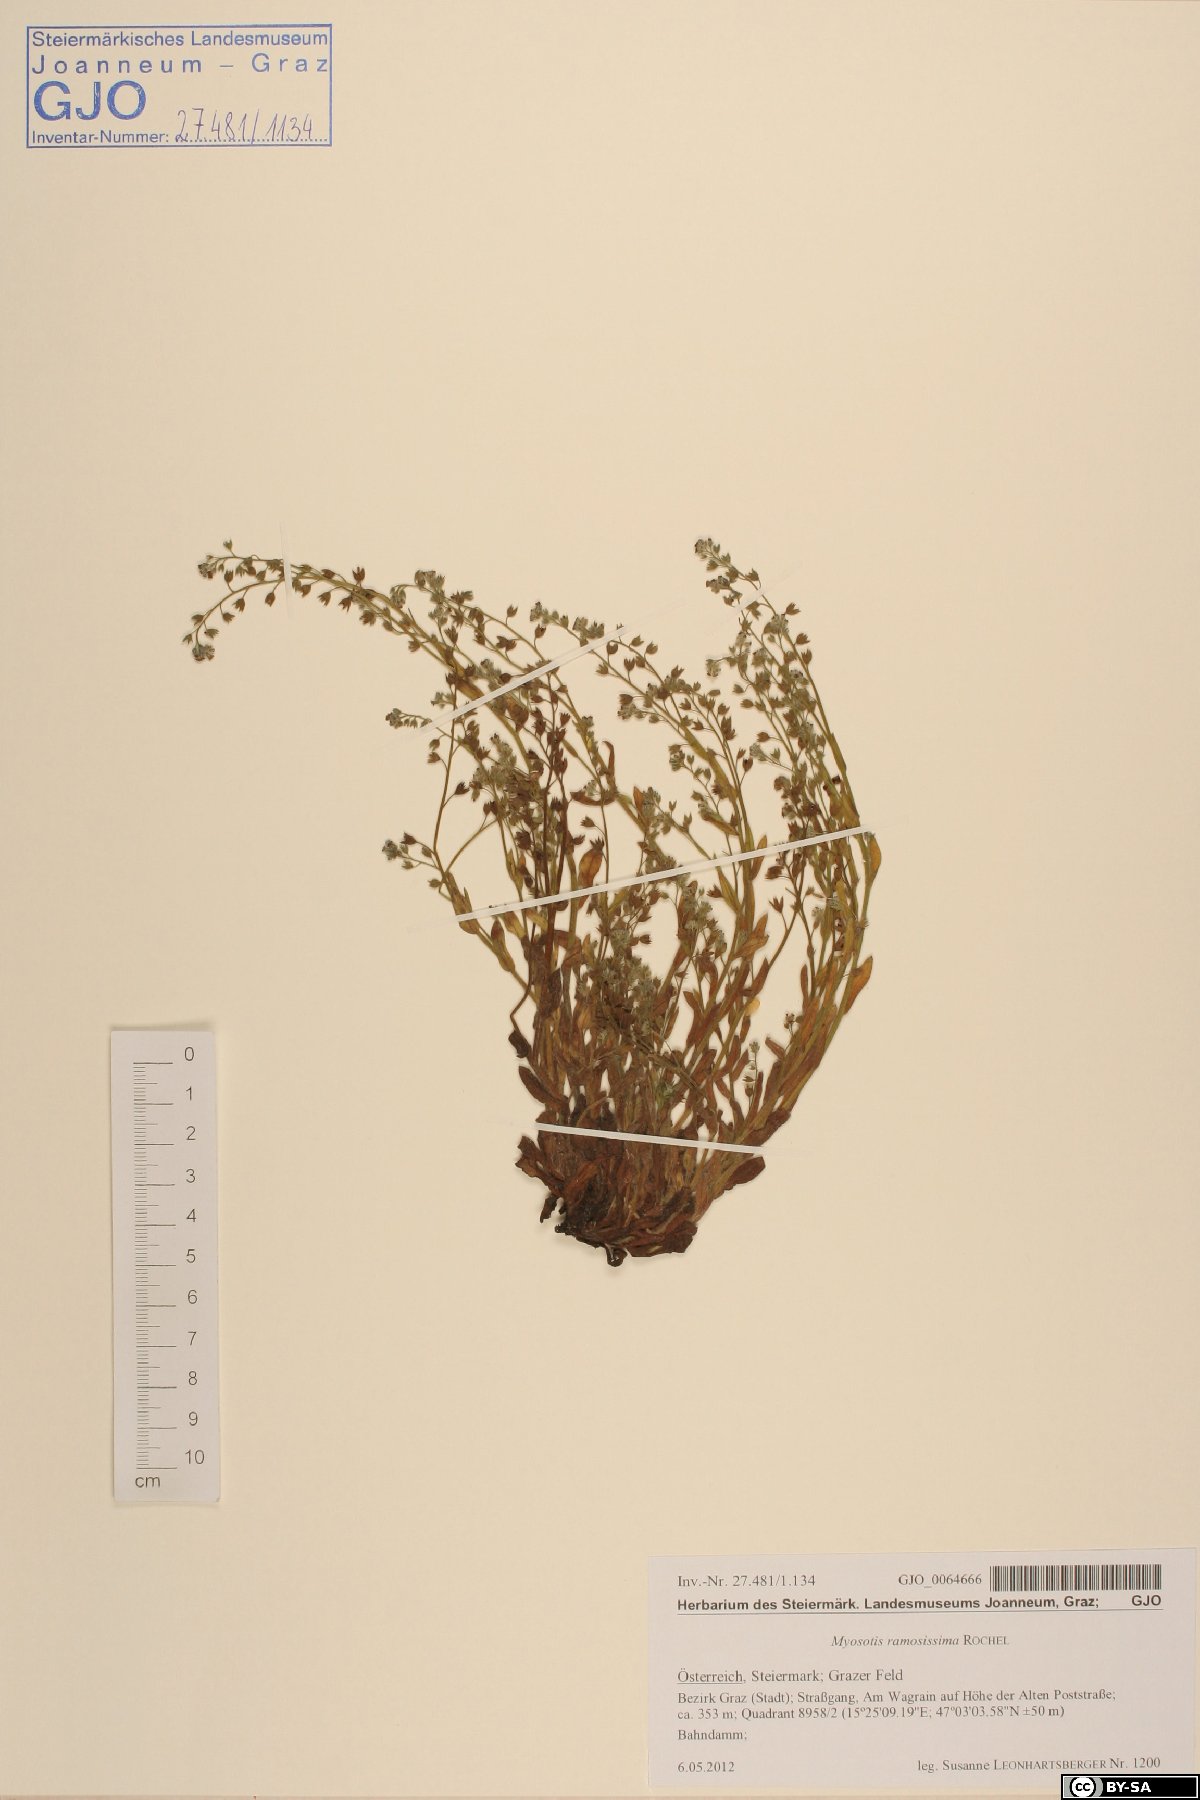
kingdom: Plantae
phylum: Tracheophyta
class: Magnoliopsida
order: Boraginales
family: Boraginaceae
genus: Myosotis
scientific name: Myosotis ramosissima
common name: Early forget-me-not
